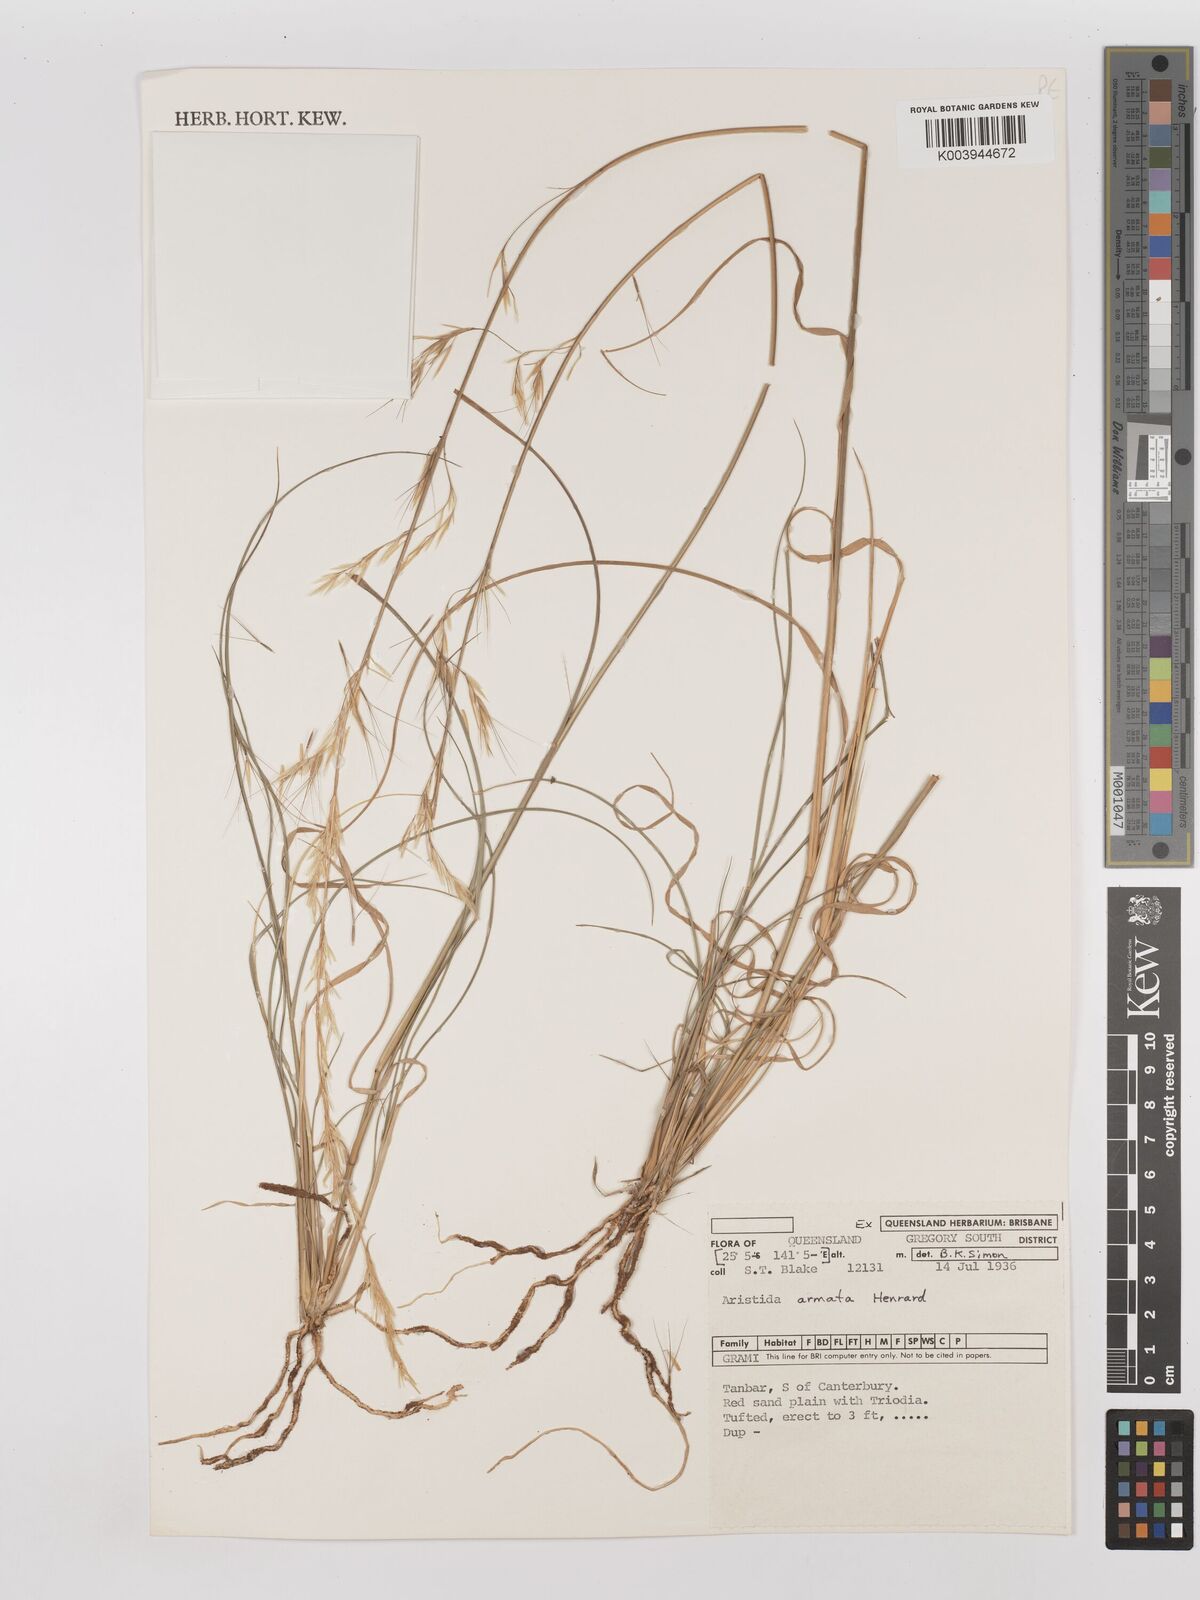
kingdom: Plantae
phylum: Tracheophyta
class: Liliopsida
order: Poales
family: Poaceae
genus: Aristida
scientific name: Aristida calycina
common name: Dark wire grass
